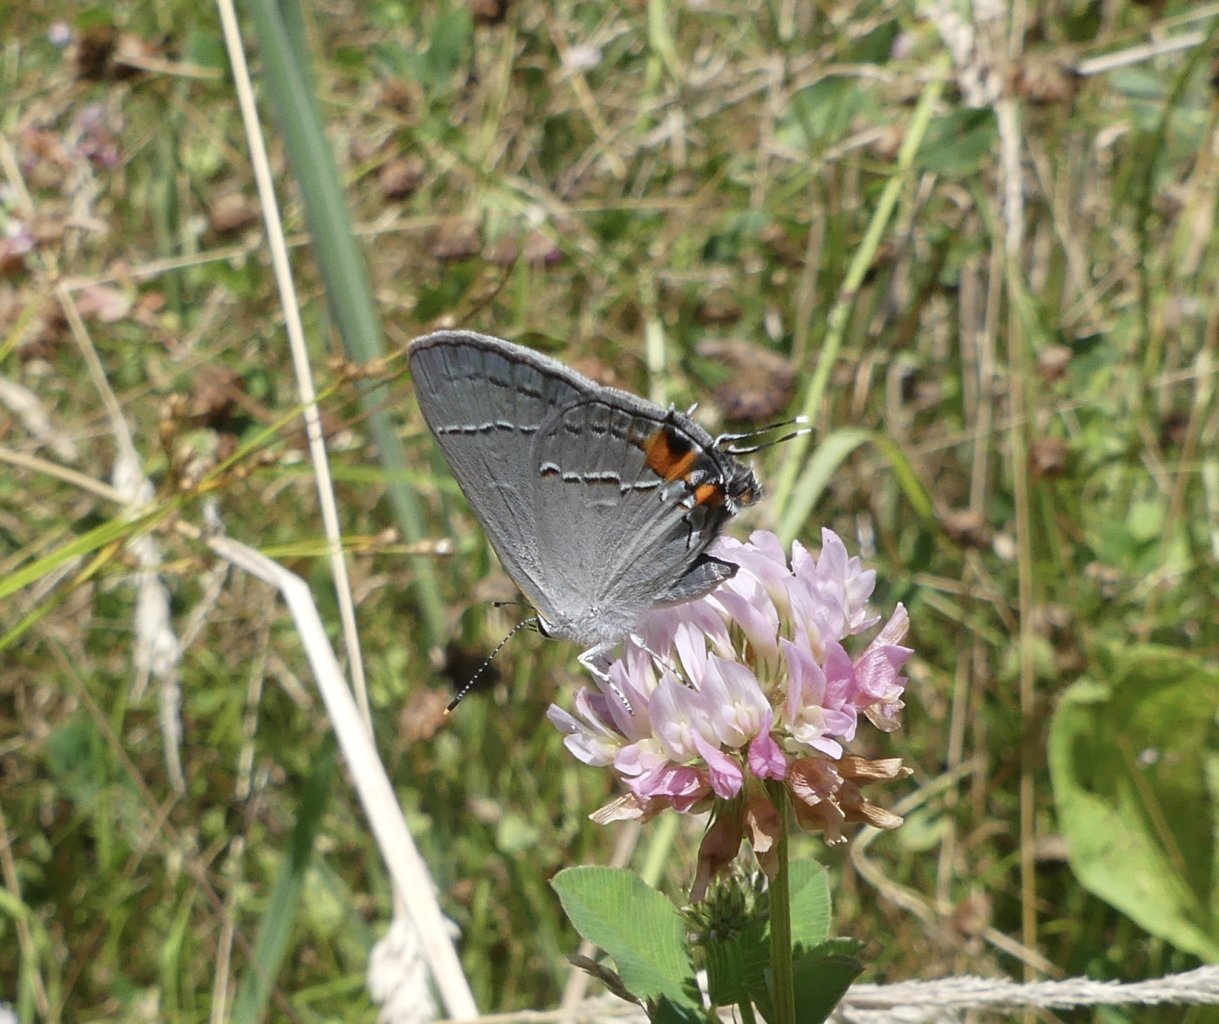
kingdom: Animalia
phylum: Arthropoda
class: Insecta
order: Lepidoptera
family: Lycaenidae
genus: Strymon
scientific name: Strymon melinus
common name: Gray Hairstreak
